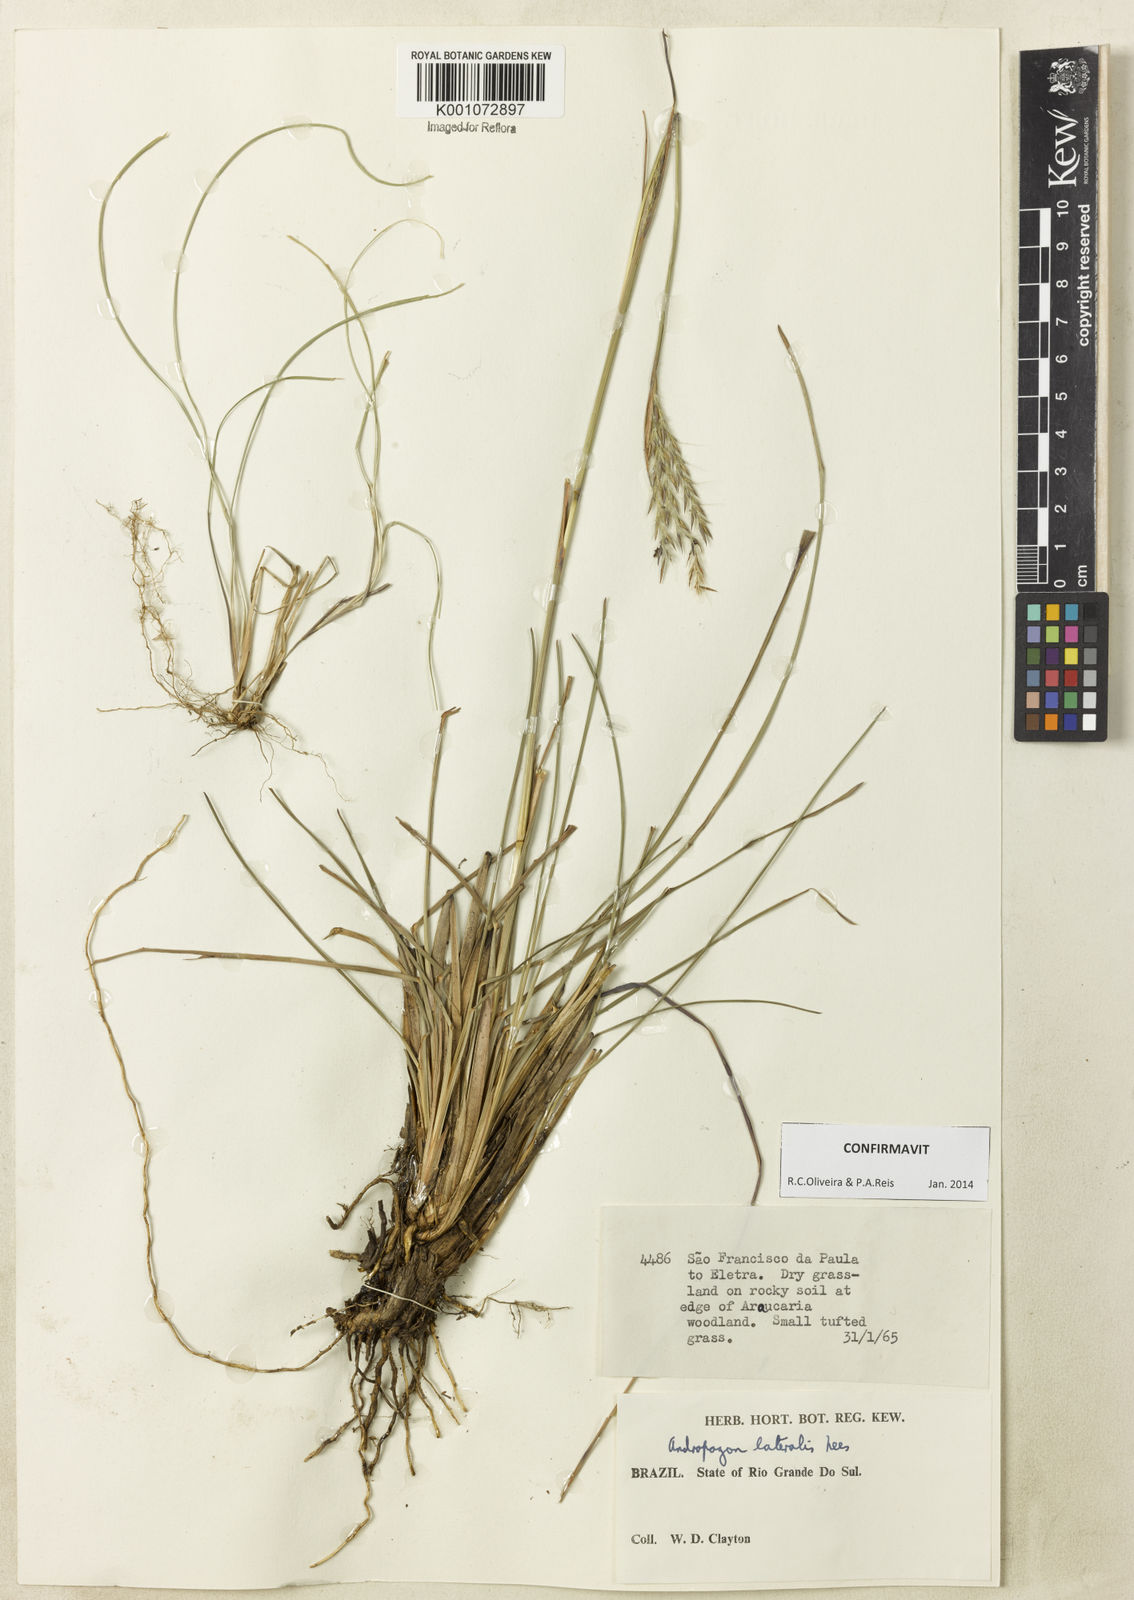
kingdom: Plantae
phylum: Tracheophyta
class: Liliopsida
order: Poales
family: Poaceae
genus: Andropogon
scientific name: Andropogon lateralis
